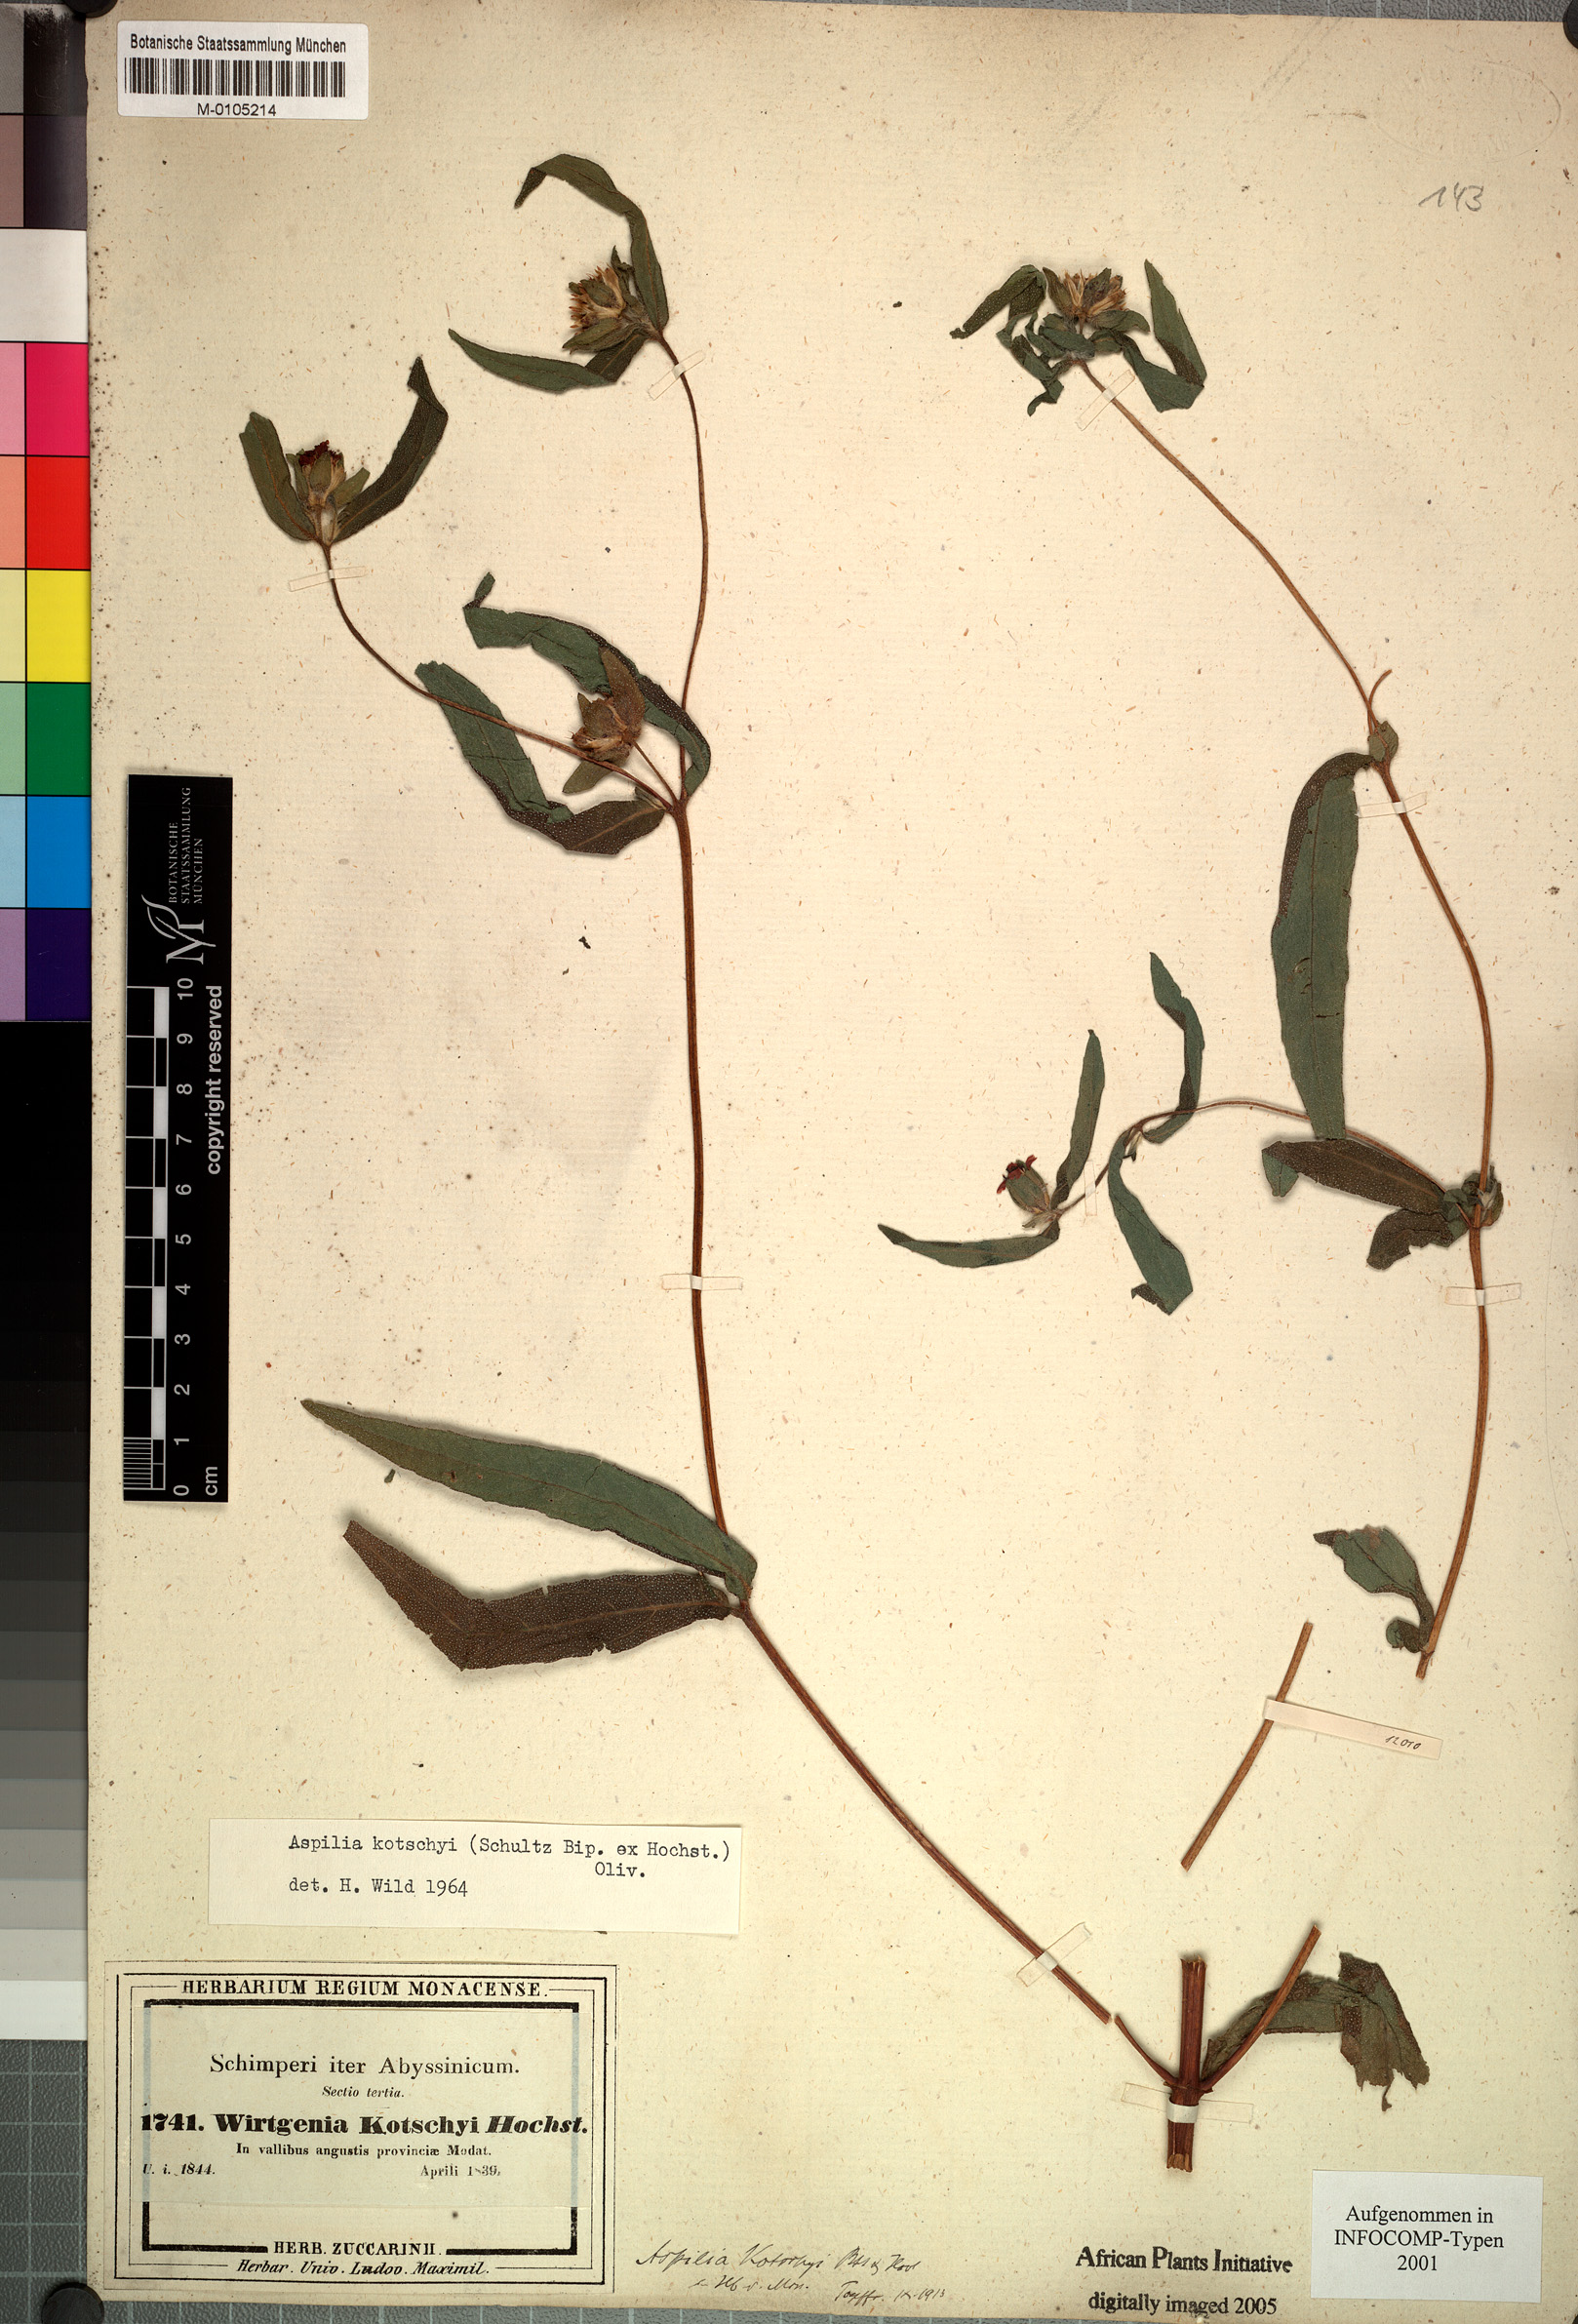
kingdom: Plantae
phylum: Tracheophyta
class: Magnoliopsida
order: Asterales
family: Asteraceae
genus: Aspilia
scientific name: Aspilia kotschyi
